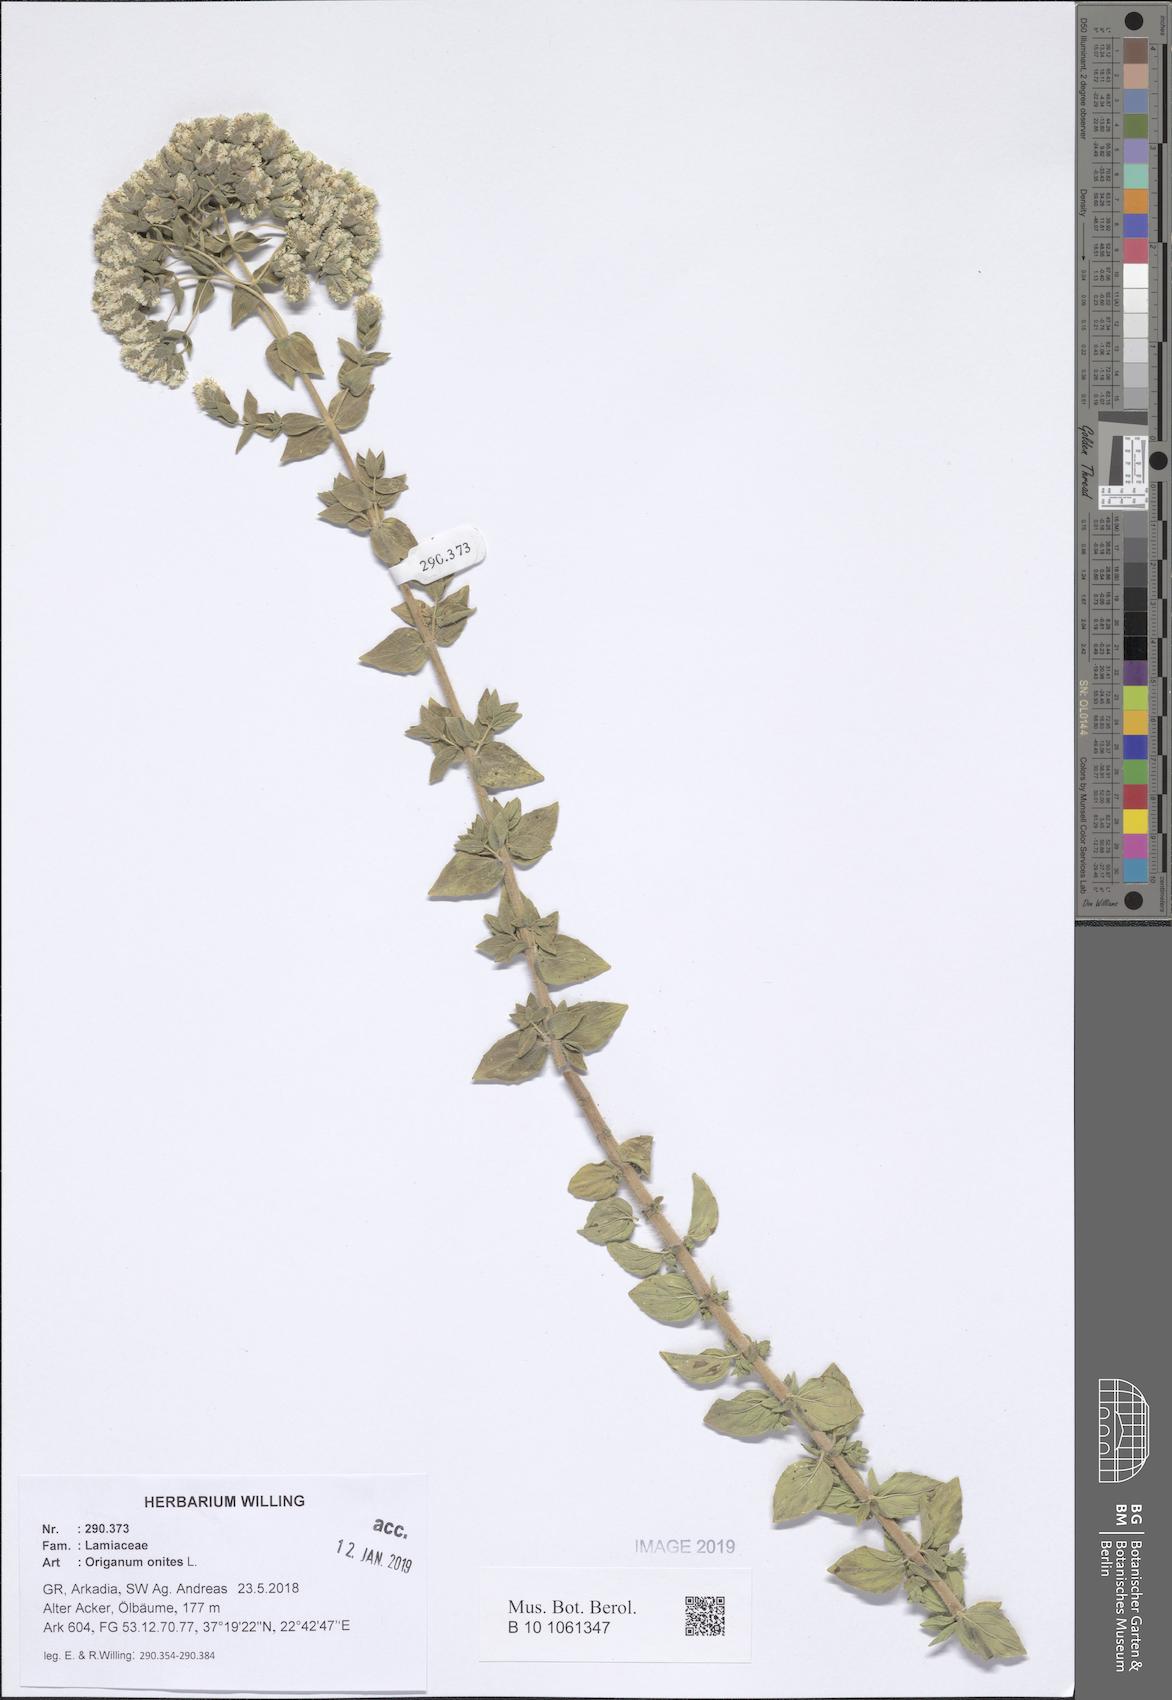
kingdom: Plantae
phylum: Tracheophyta
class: Magnoliopsida
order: Lamiales
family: Lamiaceae
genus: Origanum
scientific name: Origanum onites
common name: Turkish oregano
